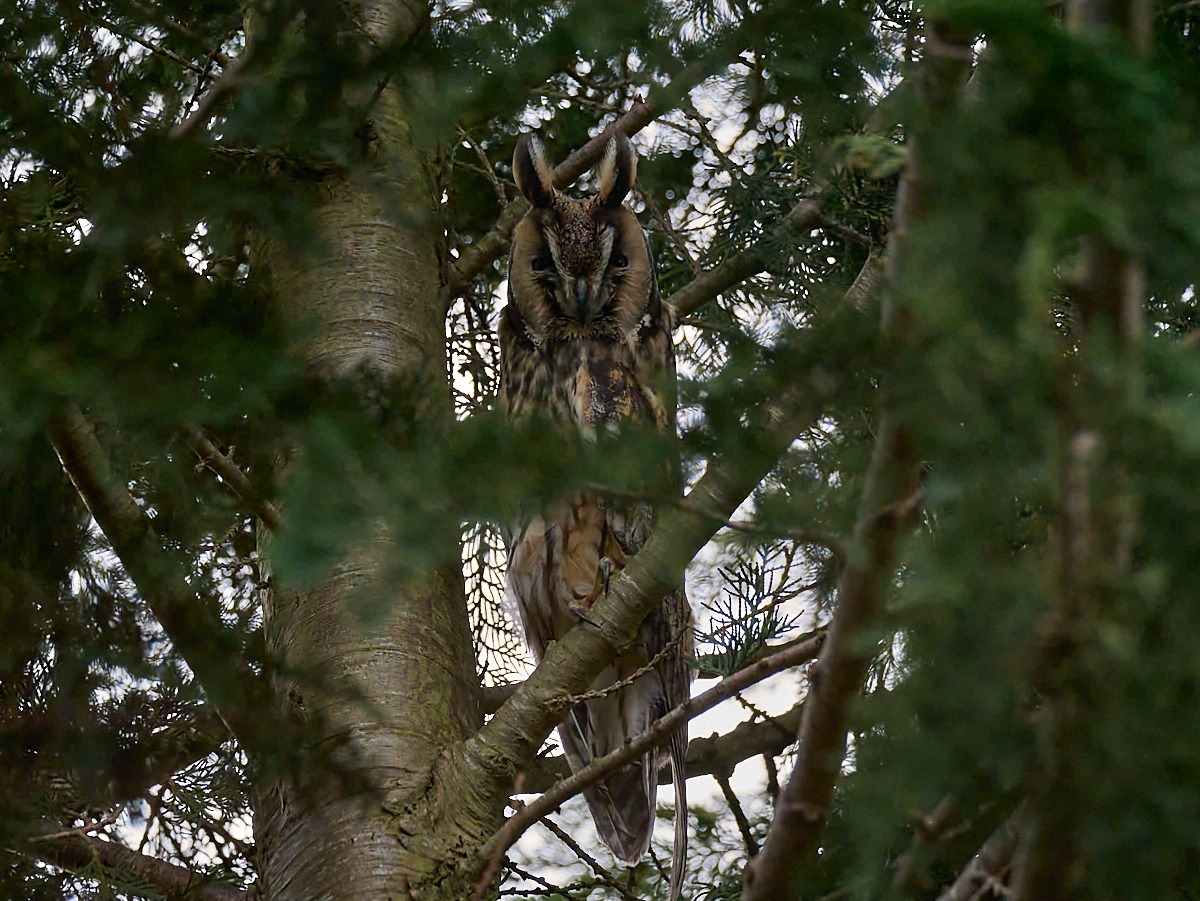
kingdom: Animalia
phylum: Chordata
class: Aves
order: Strigiformes
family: Strigidae
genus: Asio
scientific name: Asio otus
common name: Skovhornugle
